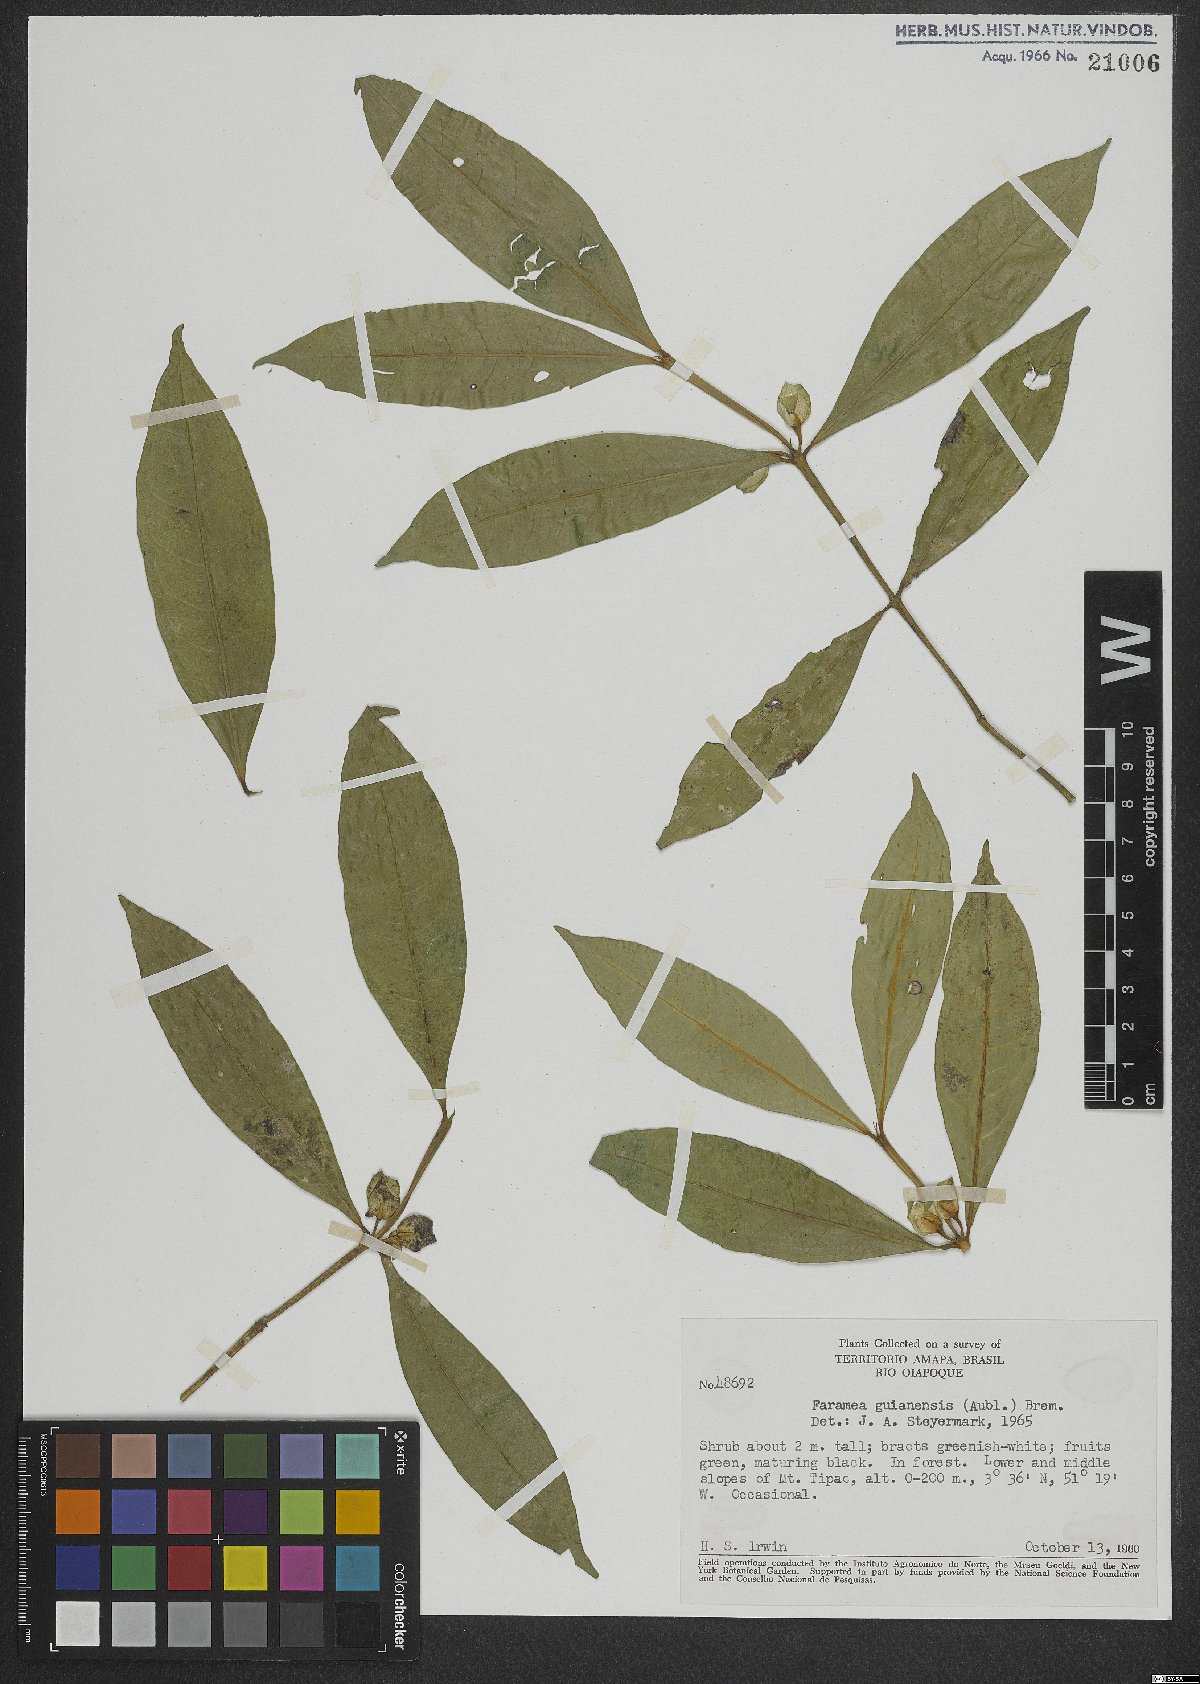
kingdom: Plantae
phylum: Tracheophyta
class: Magnoliopsida
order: Gentianales
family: Rubiaceae
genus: Faramea
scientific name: Faramea guianensis
